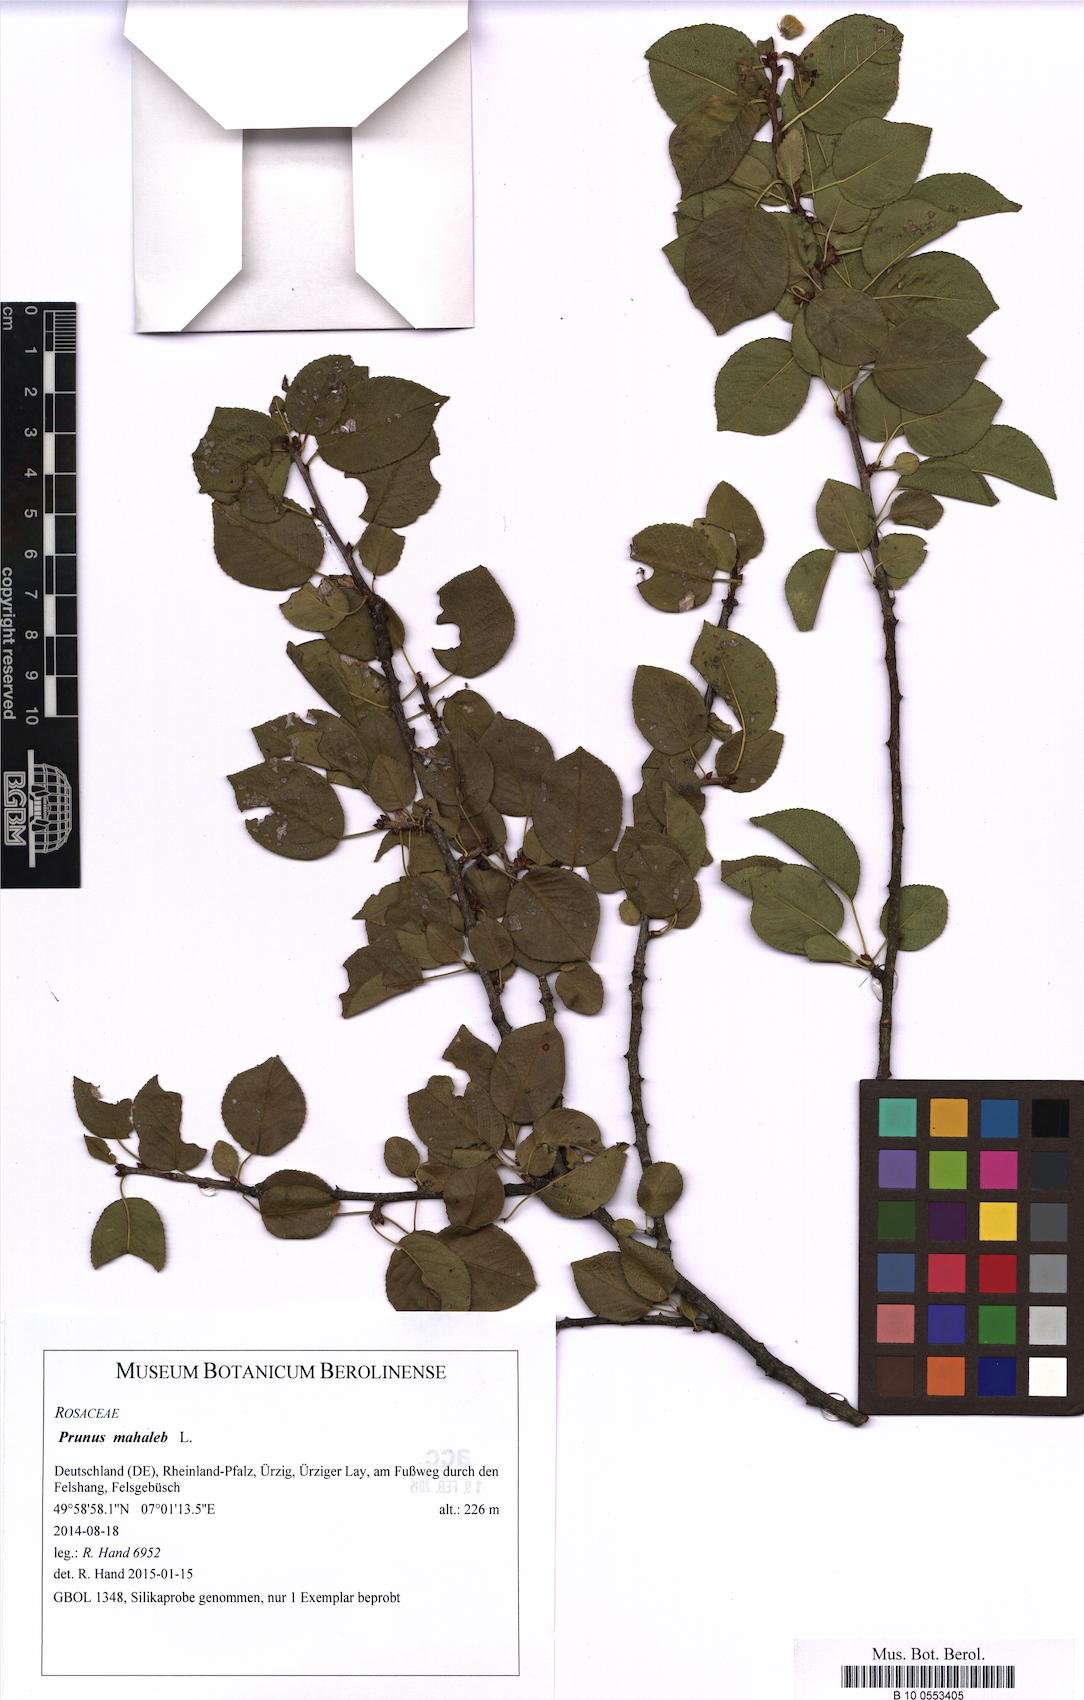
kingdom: Plantae
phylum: Tracheophyta
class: Magnoliopsida
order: Rosales
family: Rosaceae
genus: Prunus
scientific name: Prunus mahaleb
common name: Mahaleb cherry
